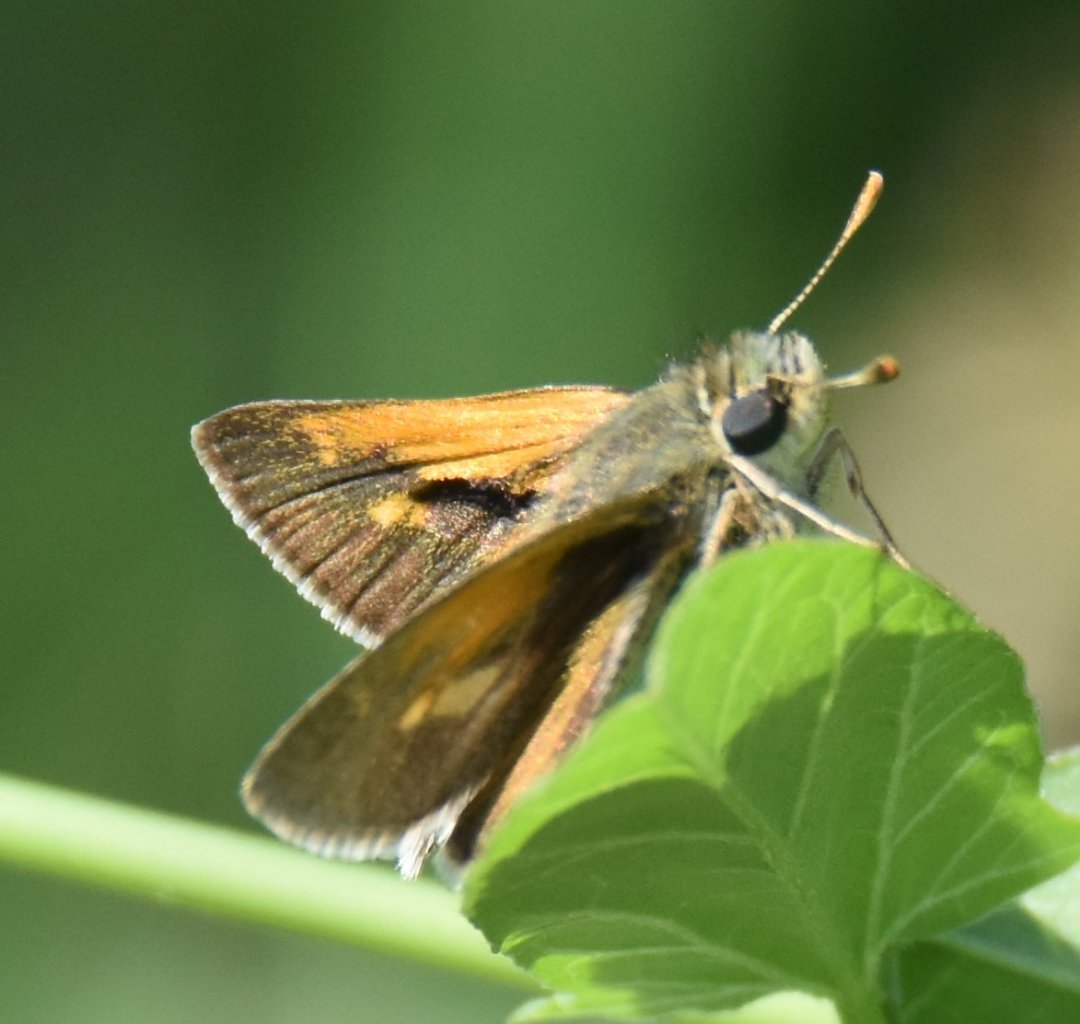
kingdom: Animalia
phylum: Arthropoda
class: Insecta
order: Lepidoptera
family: Hesperiidae
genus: Polites
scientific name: Polites themistocles
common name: Tawny-edged Skipper
